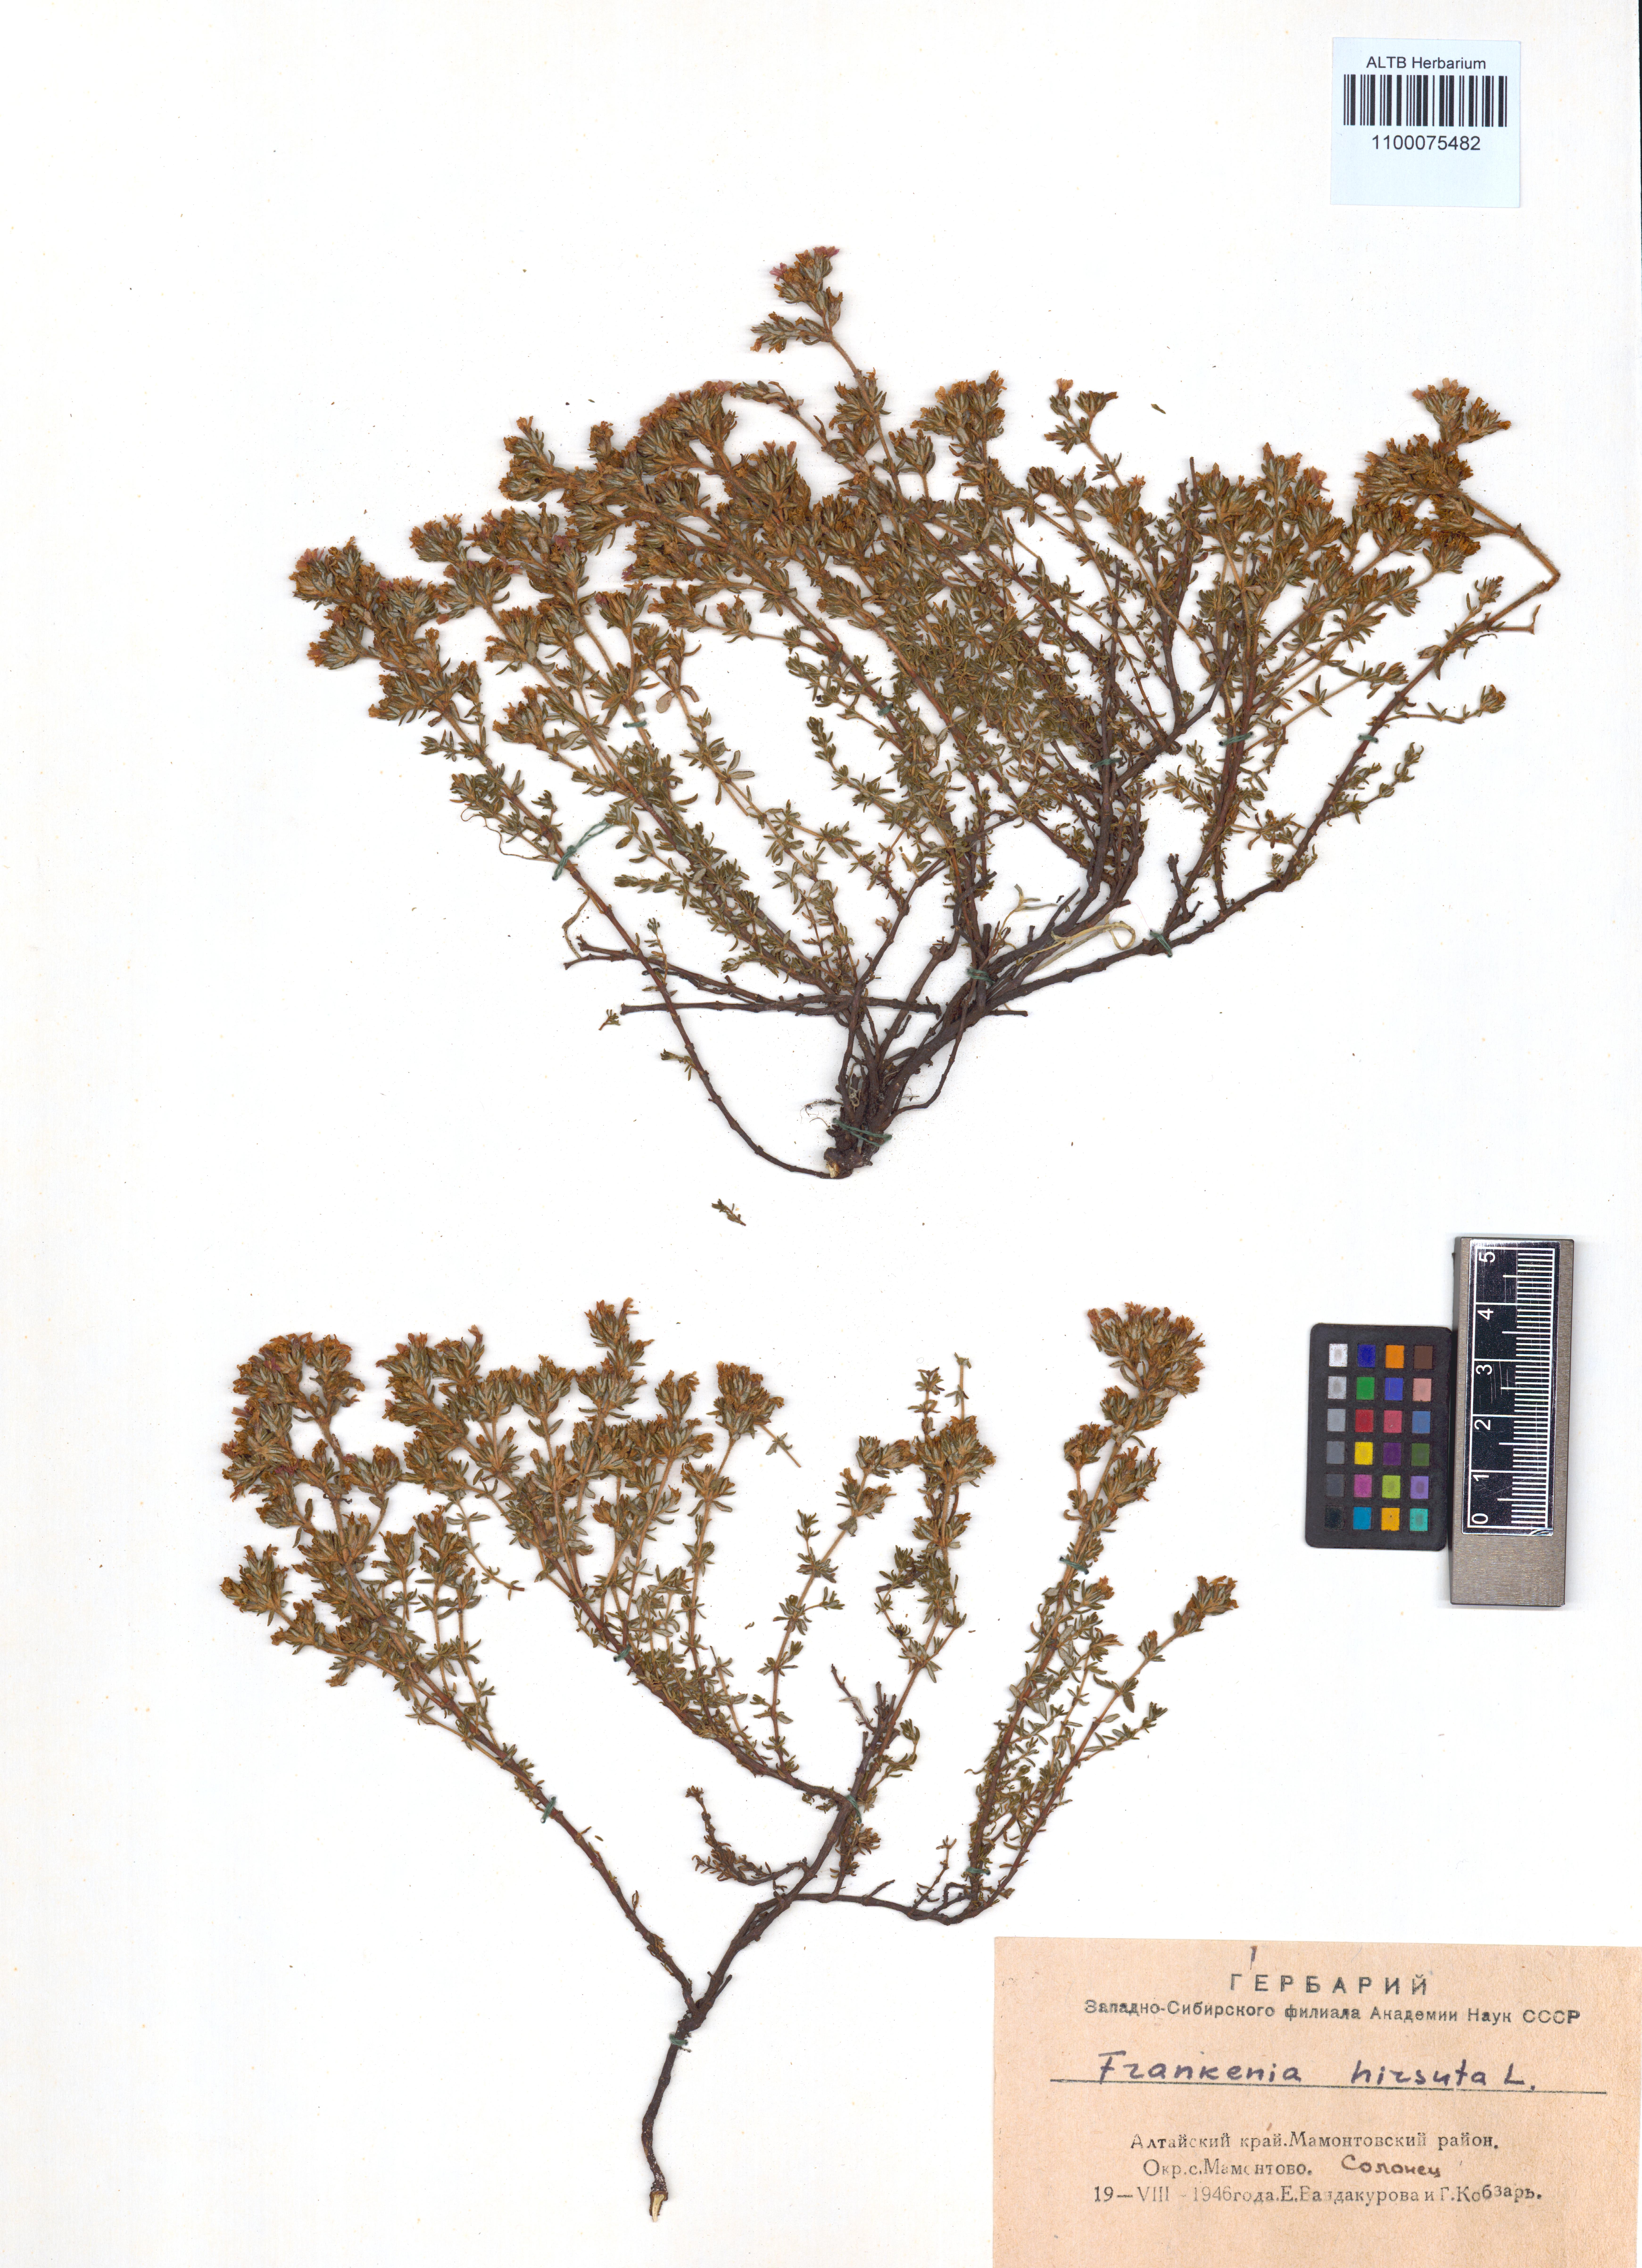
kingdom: Plantae
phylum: Tracheophyta
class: Magnoliopsida
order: Caryophyllales
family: Frankeniaceae
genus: Frankenia
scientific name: Frankenia hirsuta
